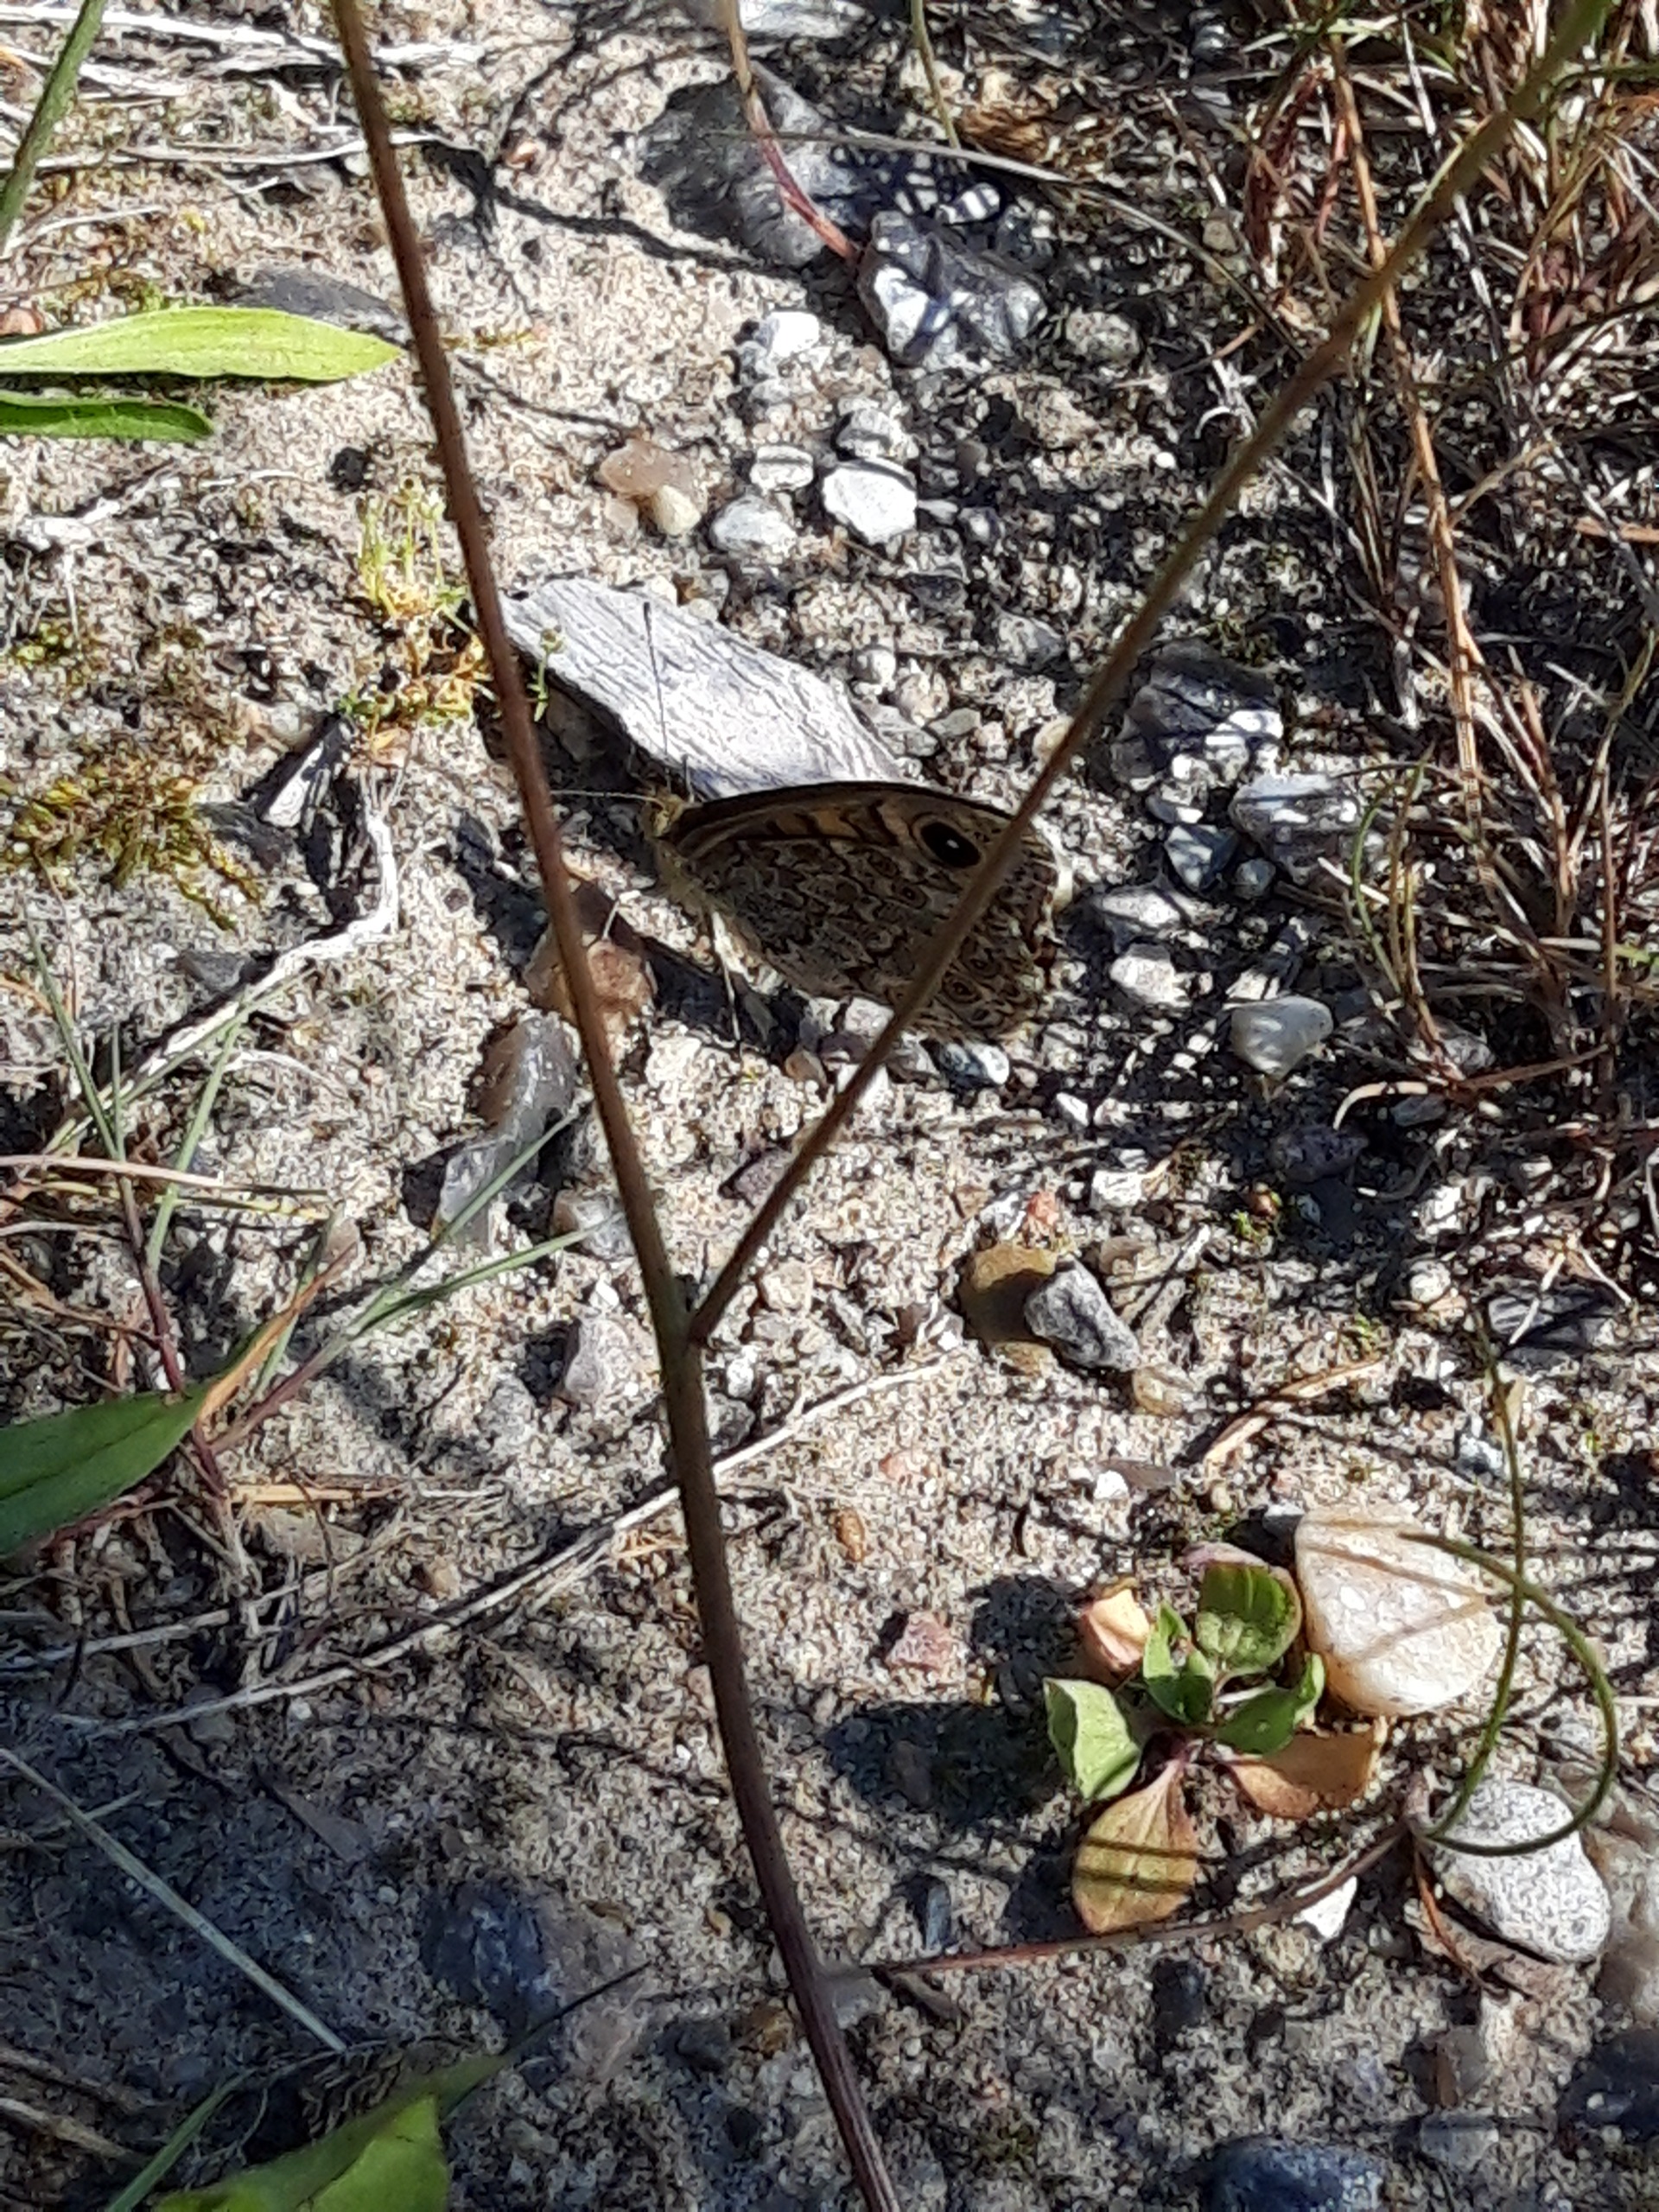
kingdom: Animalia
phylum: Arthropoda
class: Insecta
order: Lepidoptera
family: Nymphalidae
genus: Pararge
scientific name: Pararge Lasiommata megera
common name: Vejrandøje
